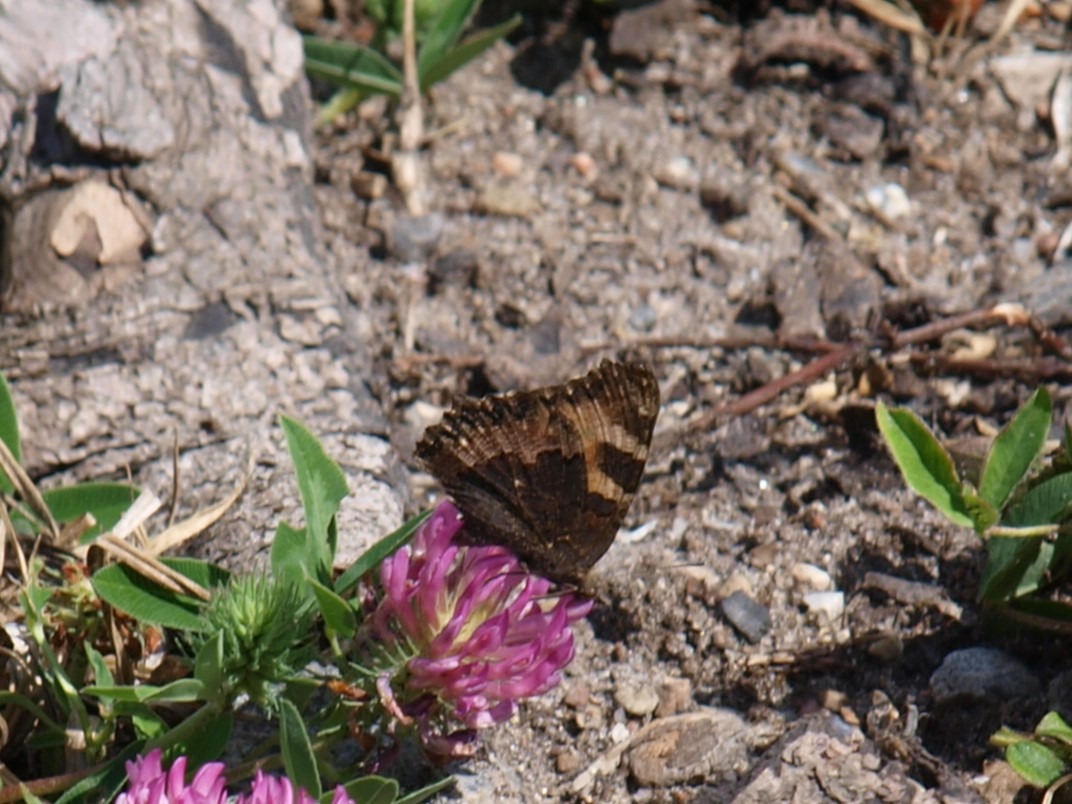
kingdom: Animalia
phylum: Arthropoda
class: Insecta
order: Lepidoptera
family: Nymphalidae
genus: Aglais
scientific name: Aglais urticae
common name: Nældens takvinge
